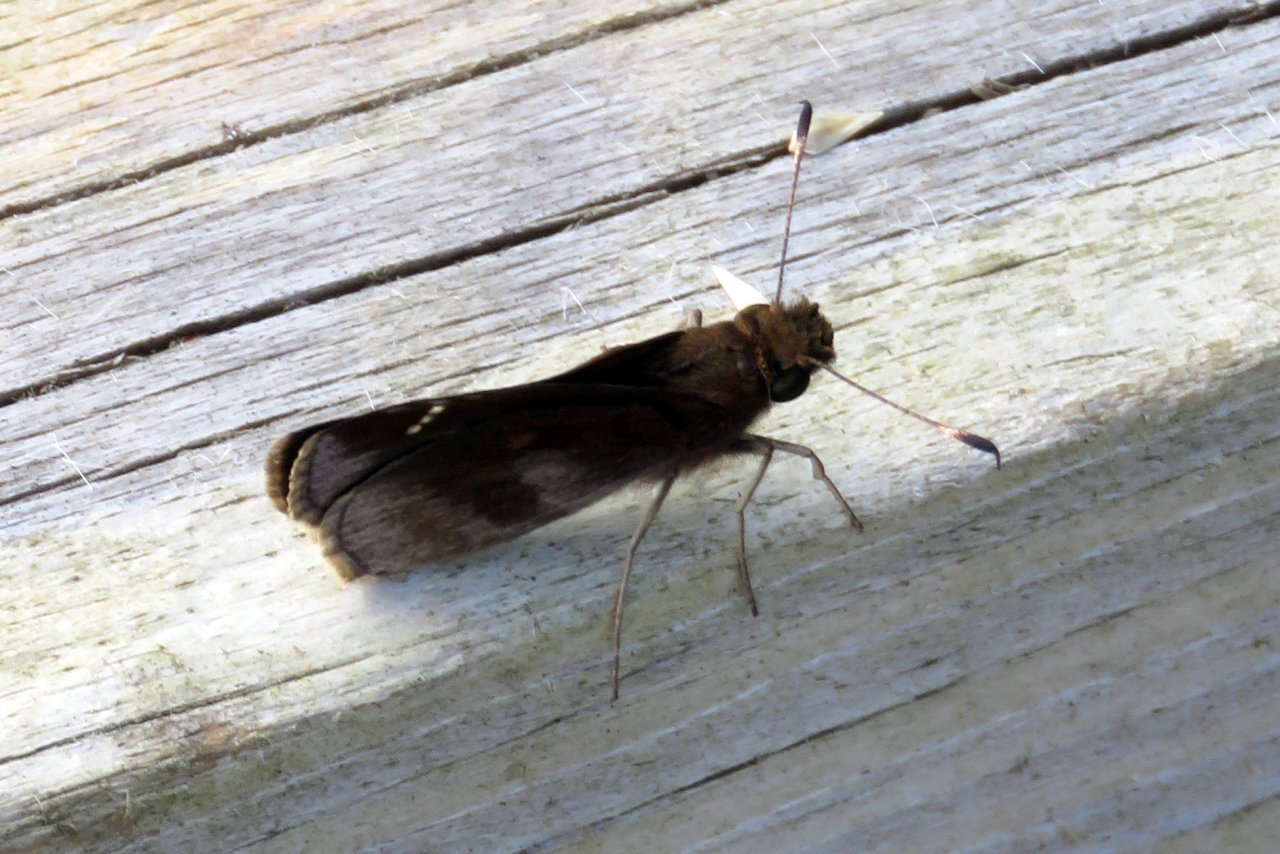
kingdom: Animalia
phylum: Arthropoda
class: Insecta
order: Lepidoptera
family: Hesperiidae
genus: Lerema
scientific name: Lerema accius
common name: Clouded Skipper
